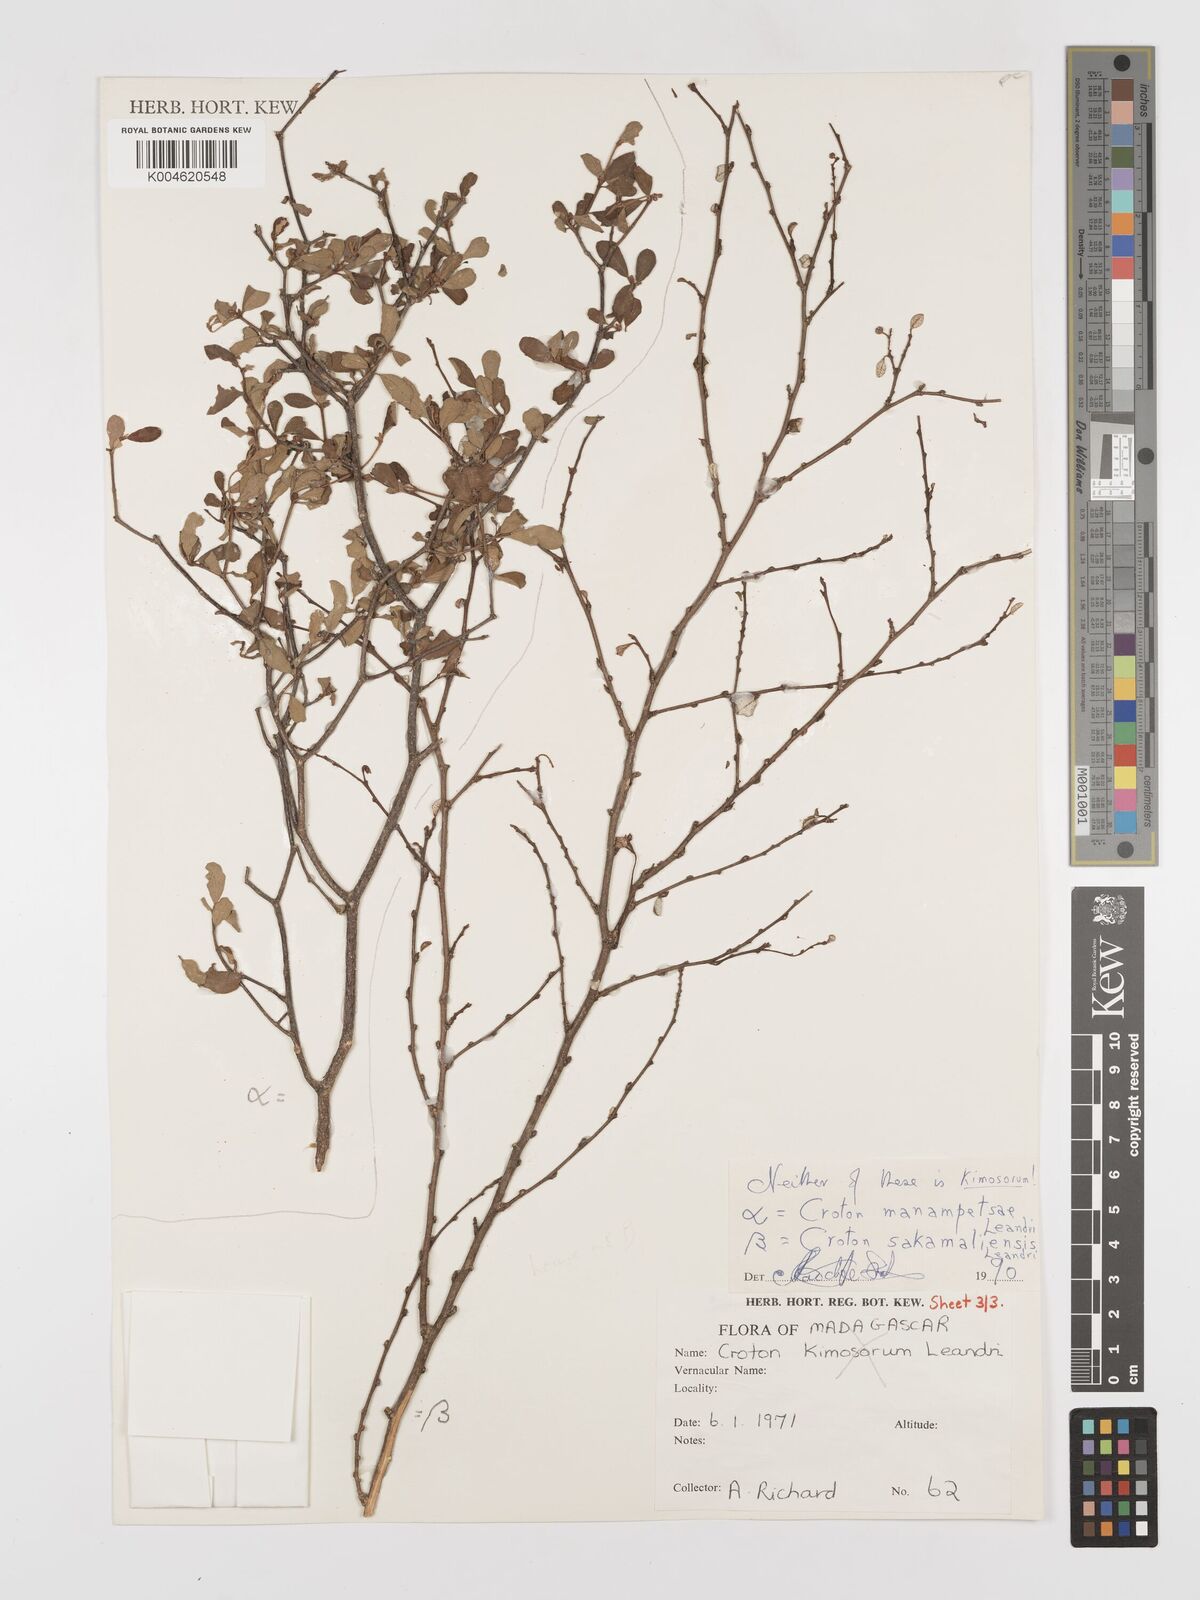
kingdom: Plantae
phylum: Tracheophyta
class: Magnoliopsida
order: Malpighiales
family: Euphorbiaceae
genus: Croton
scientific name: Croton sakamaliensis
